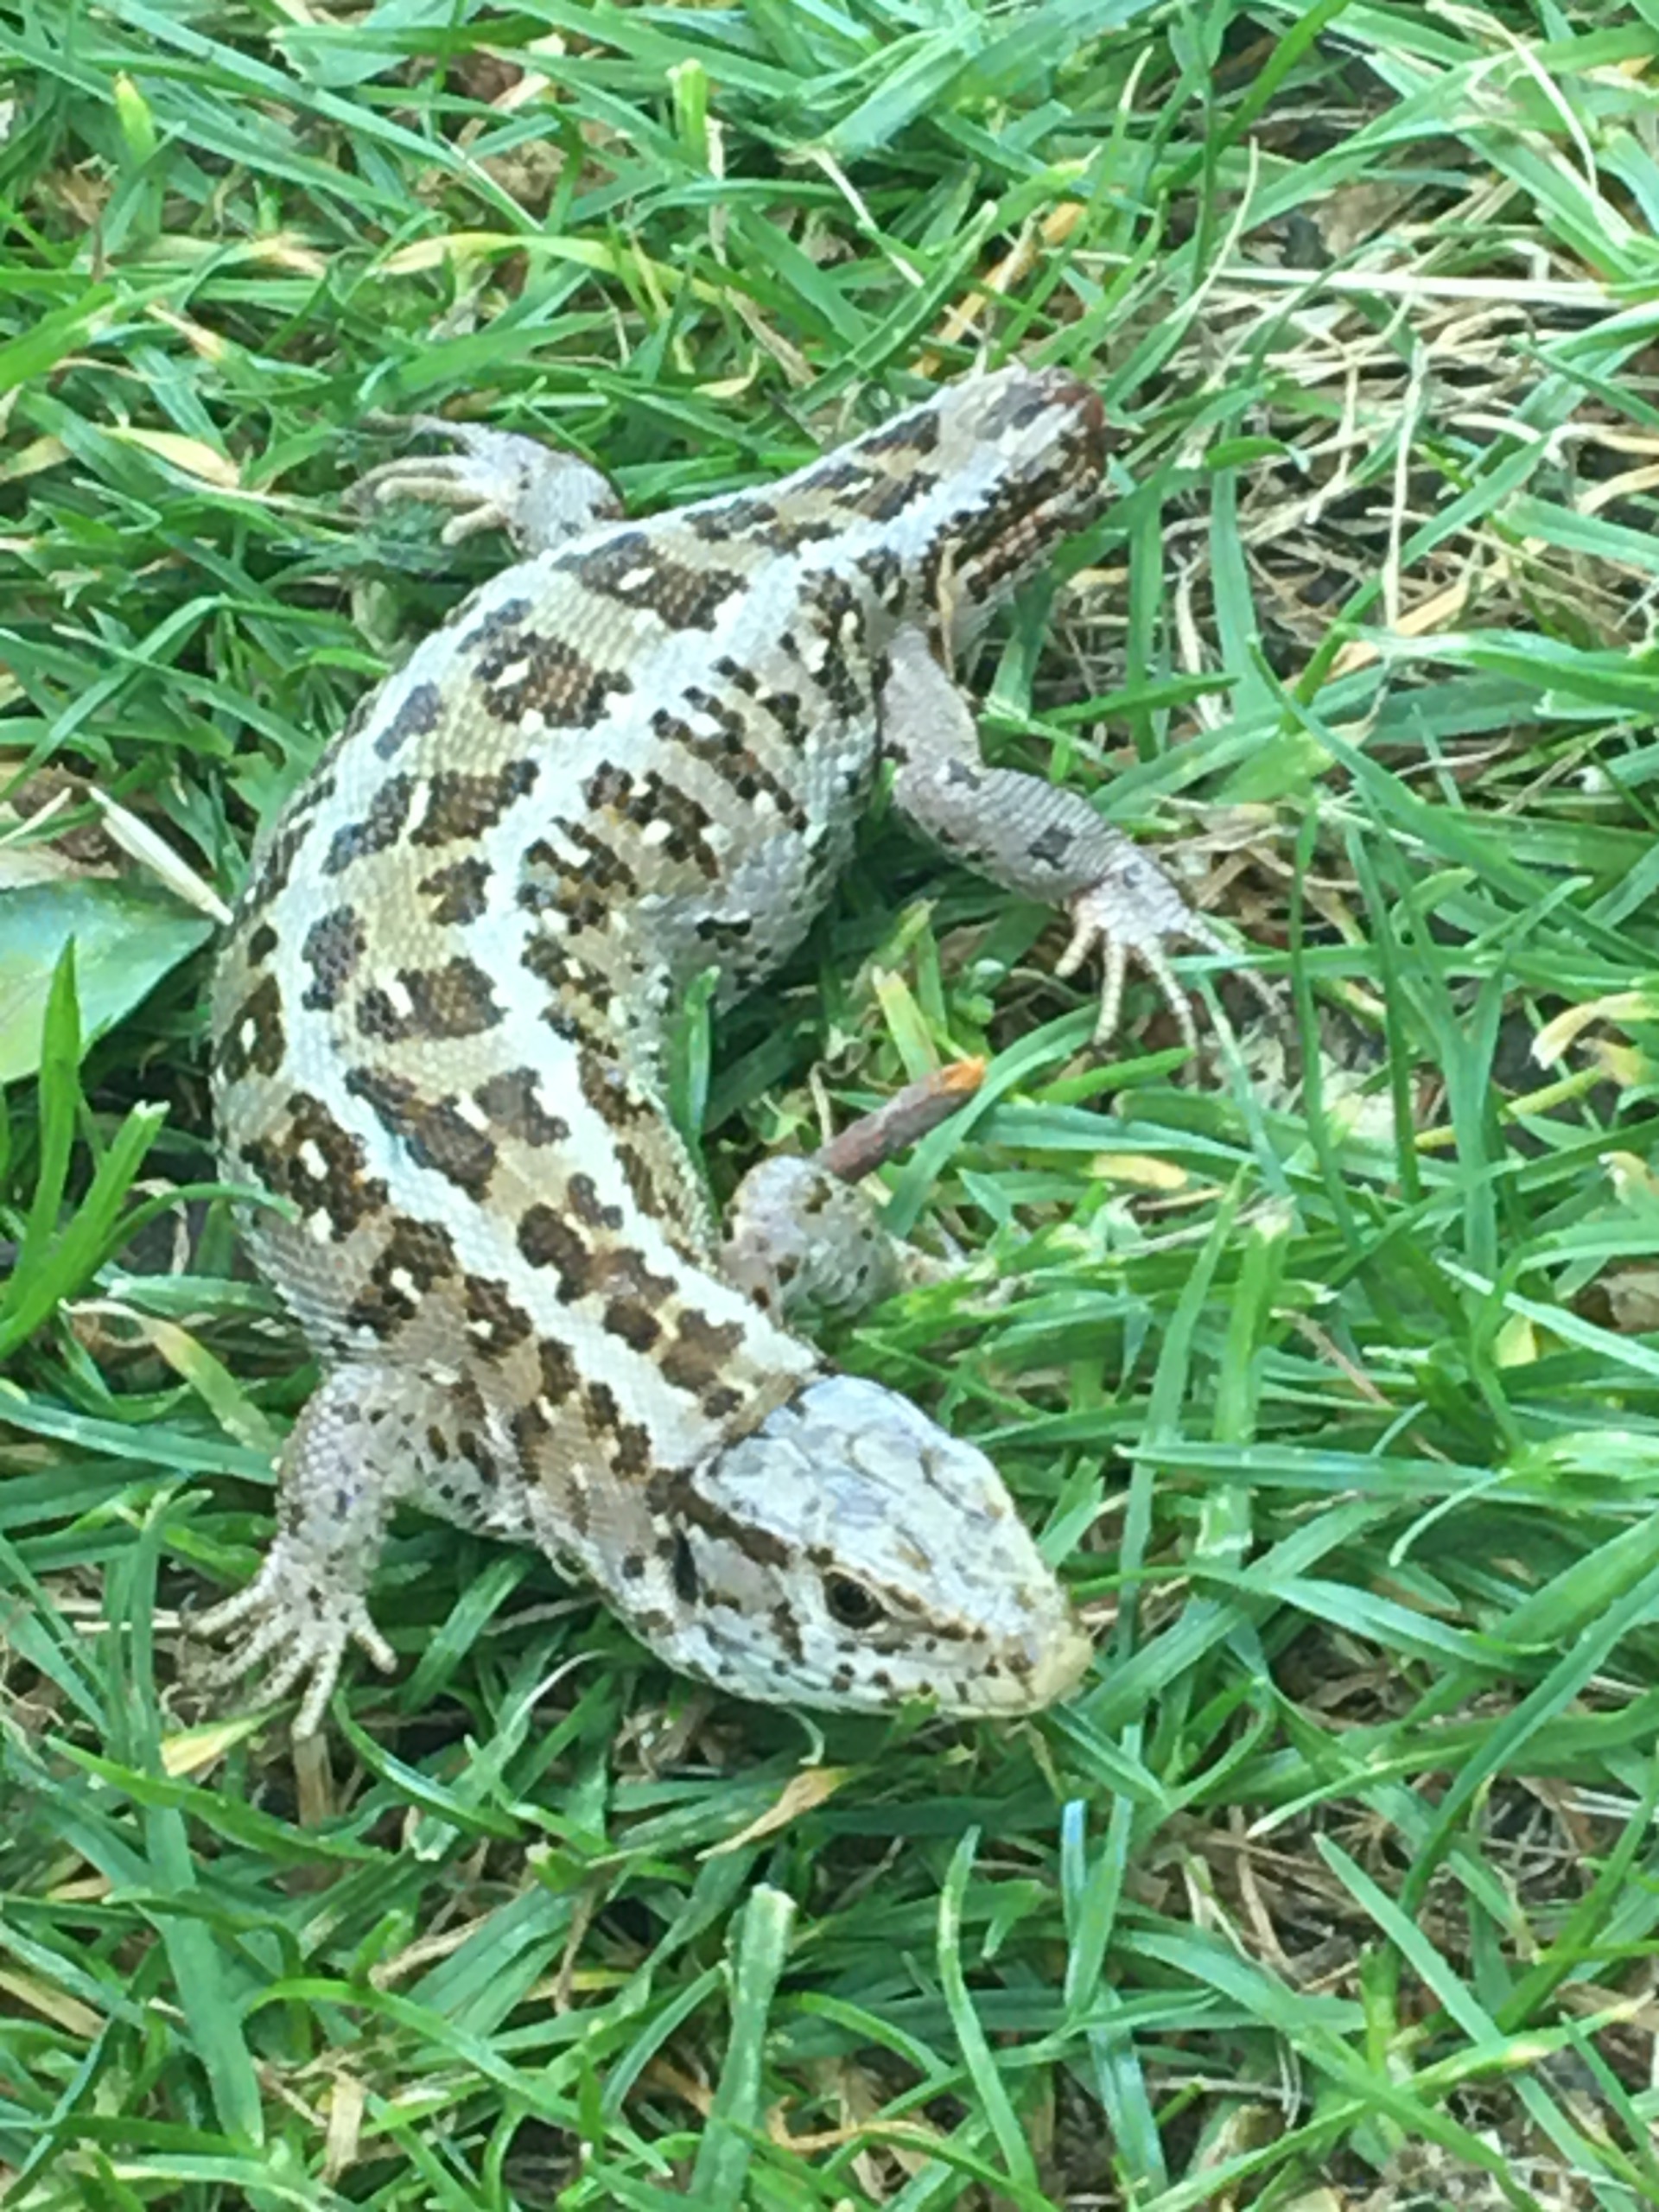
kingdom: Animalia
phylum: Chordata
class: Squamata
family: Lacertidae
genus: Lacerta
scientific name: Lacerta agilis
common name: Markfirben
